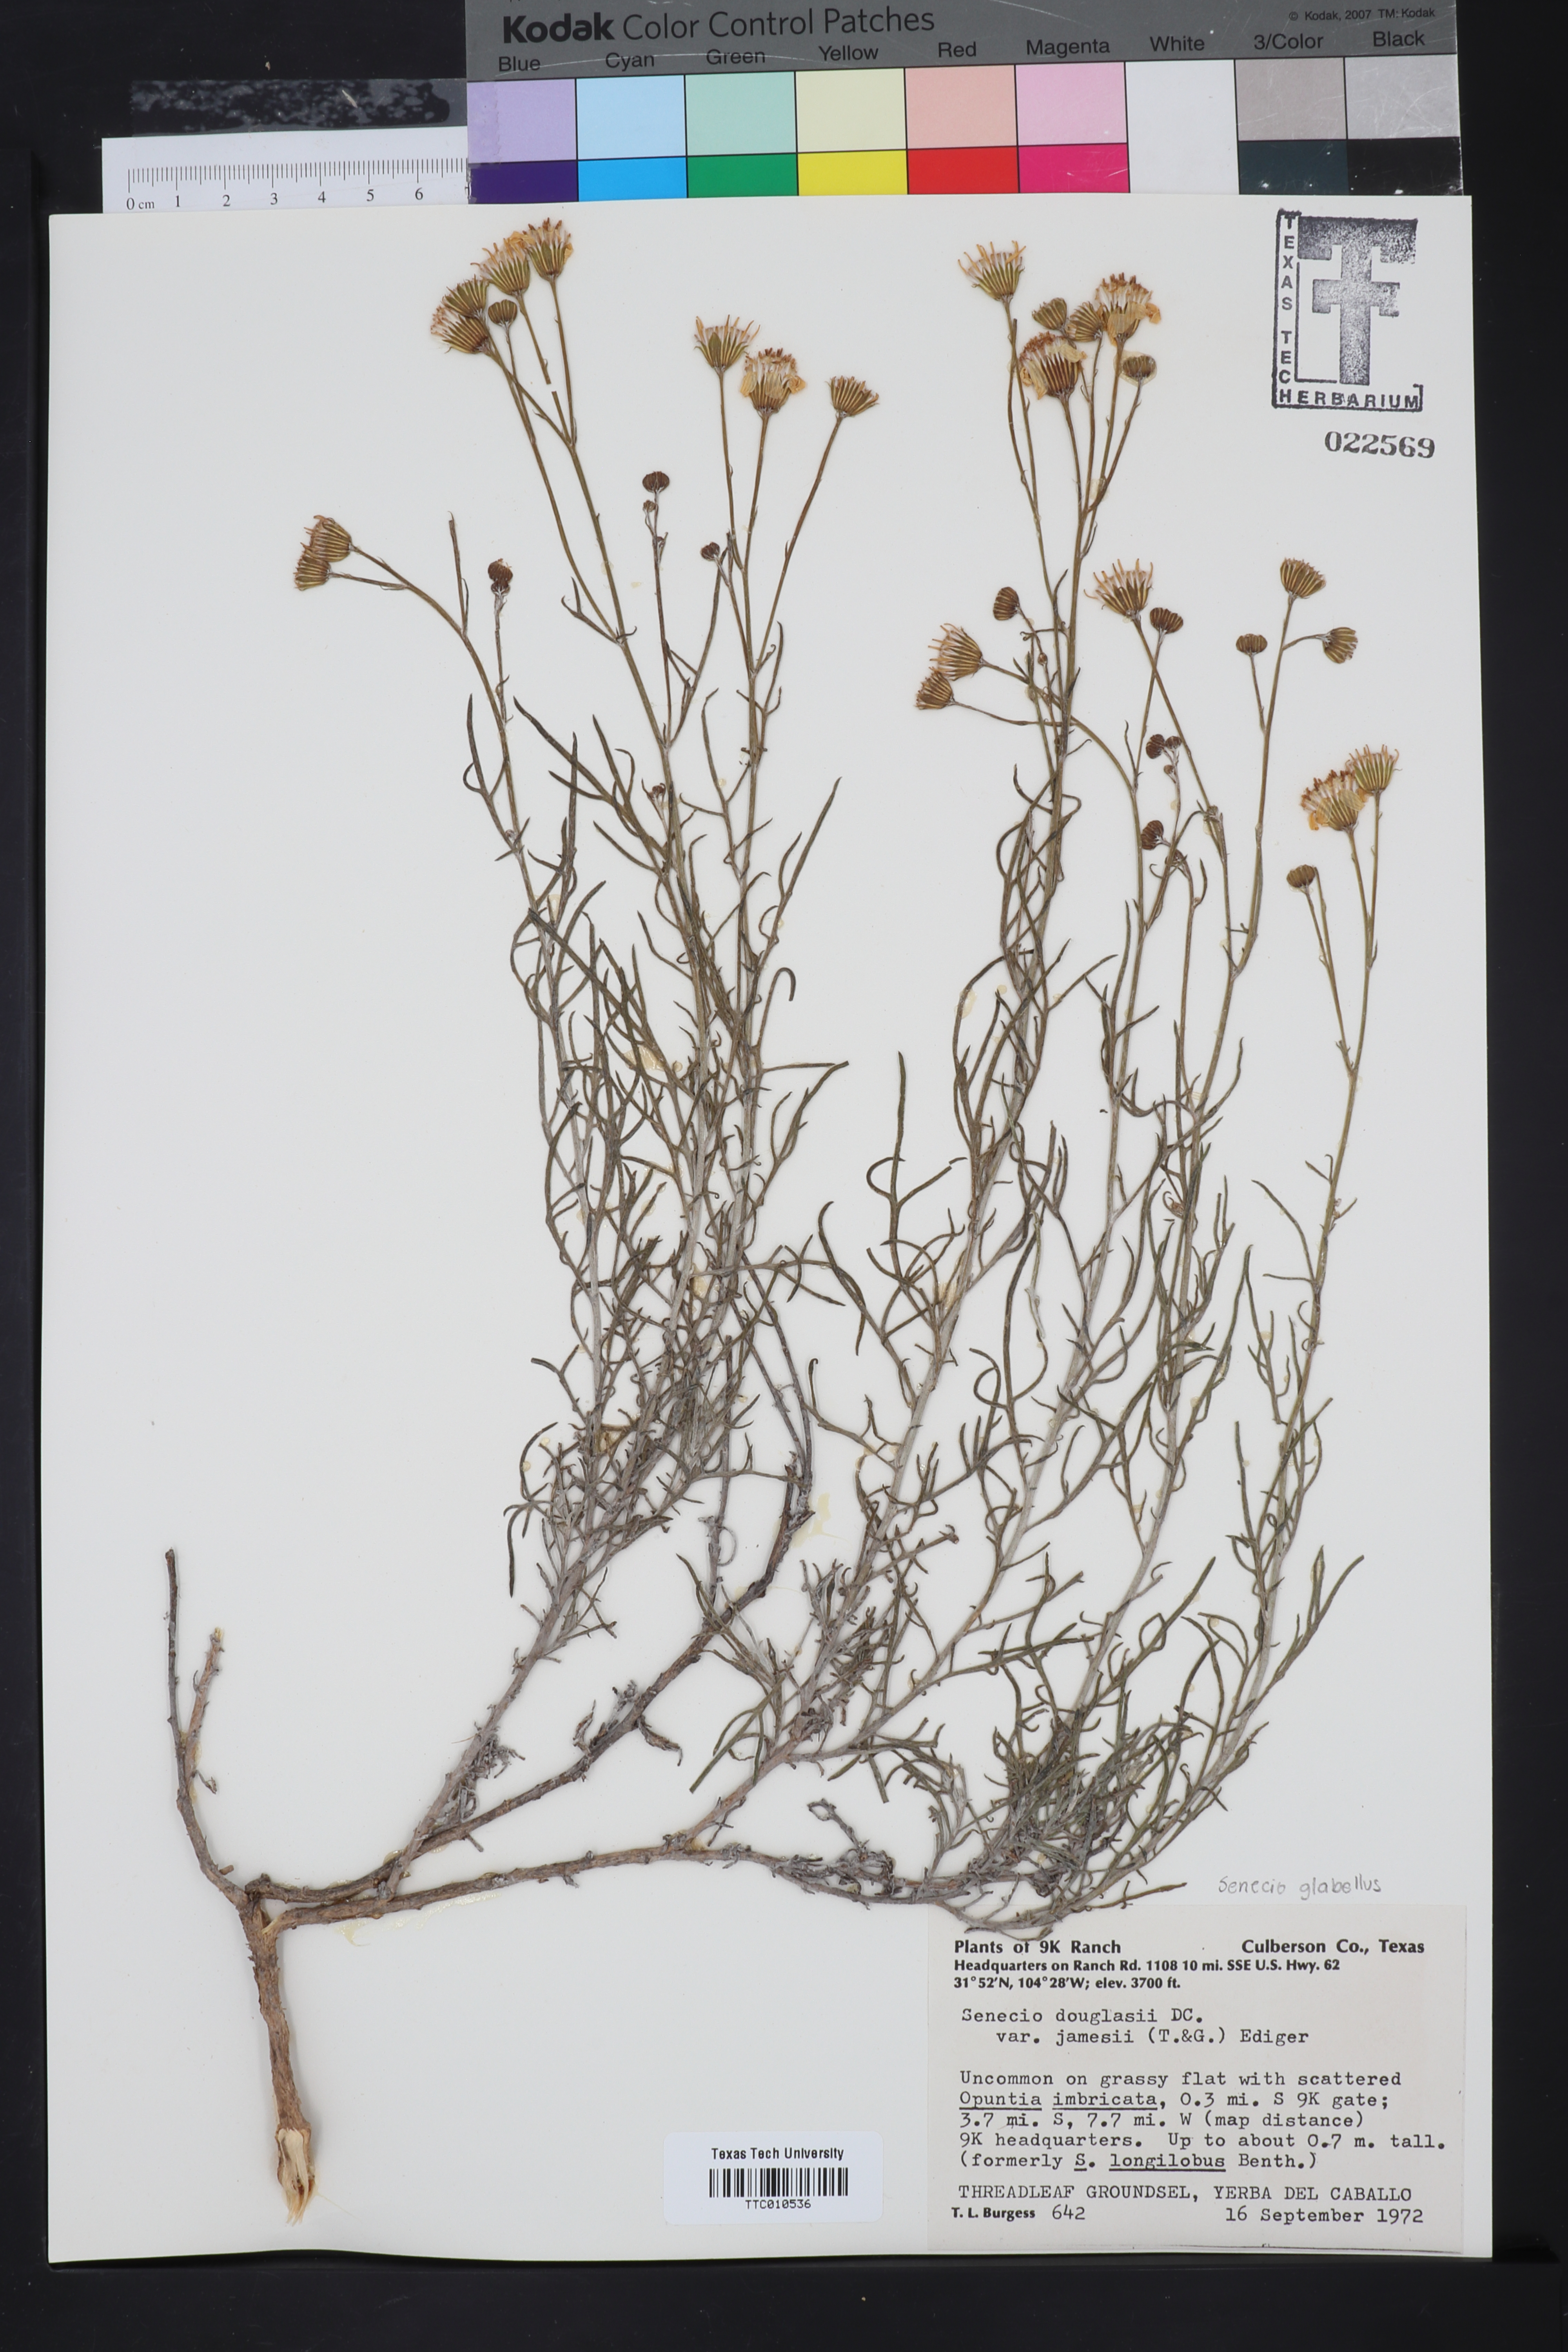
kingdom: Plantae
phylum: Tracheophyta
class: Magnoliopsida
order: Asterales
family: Asteraceae
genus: Senecio
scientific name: Senecio flaccidus
